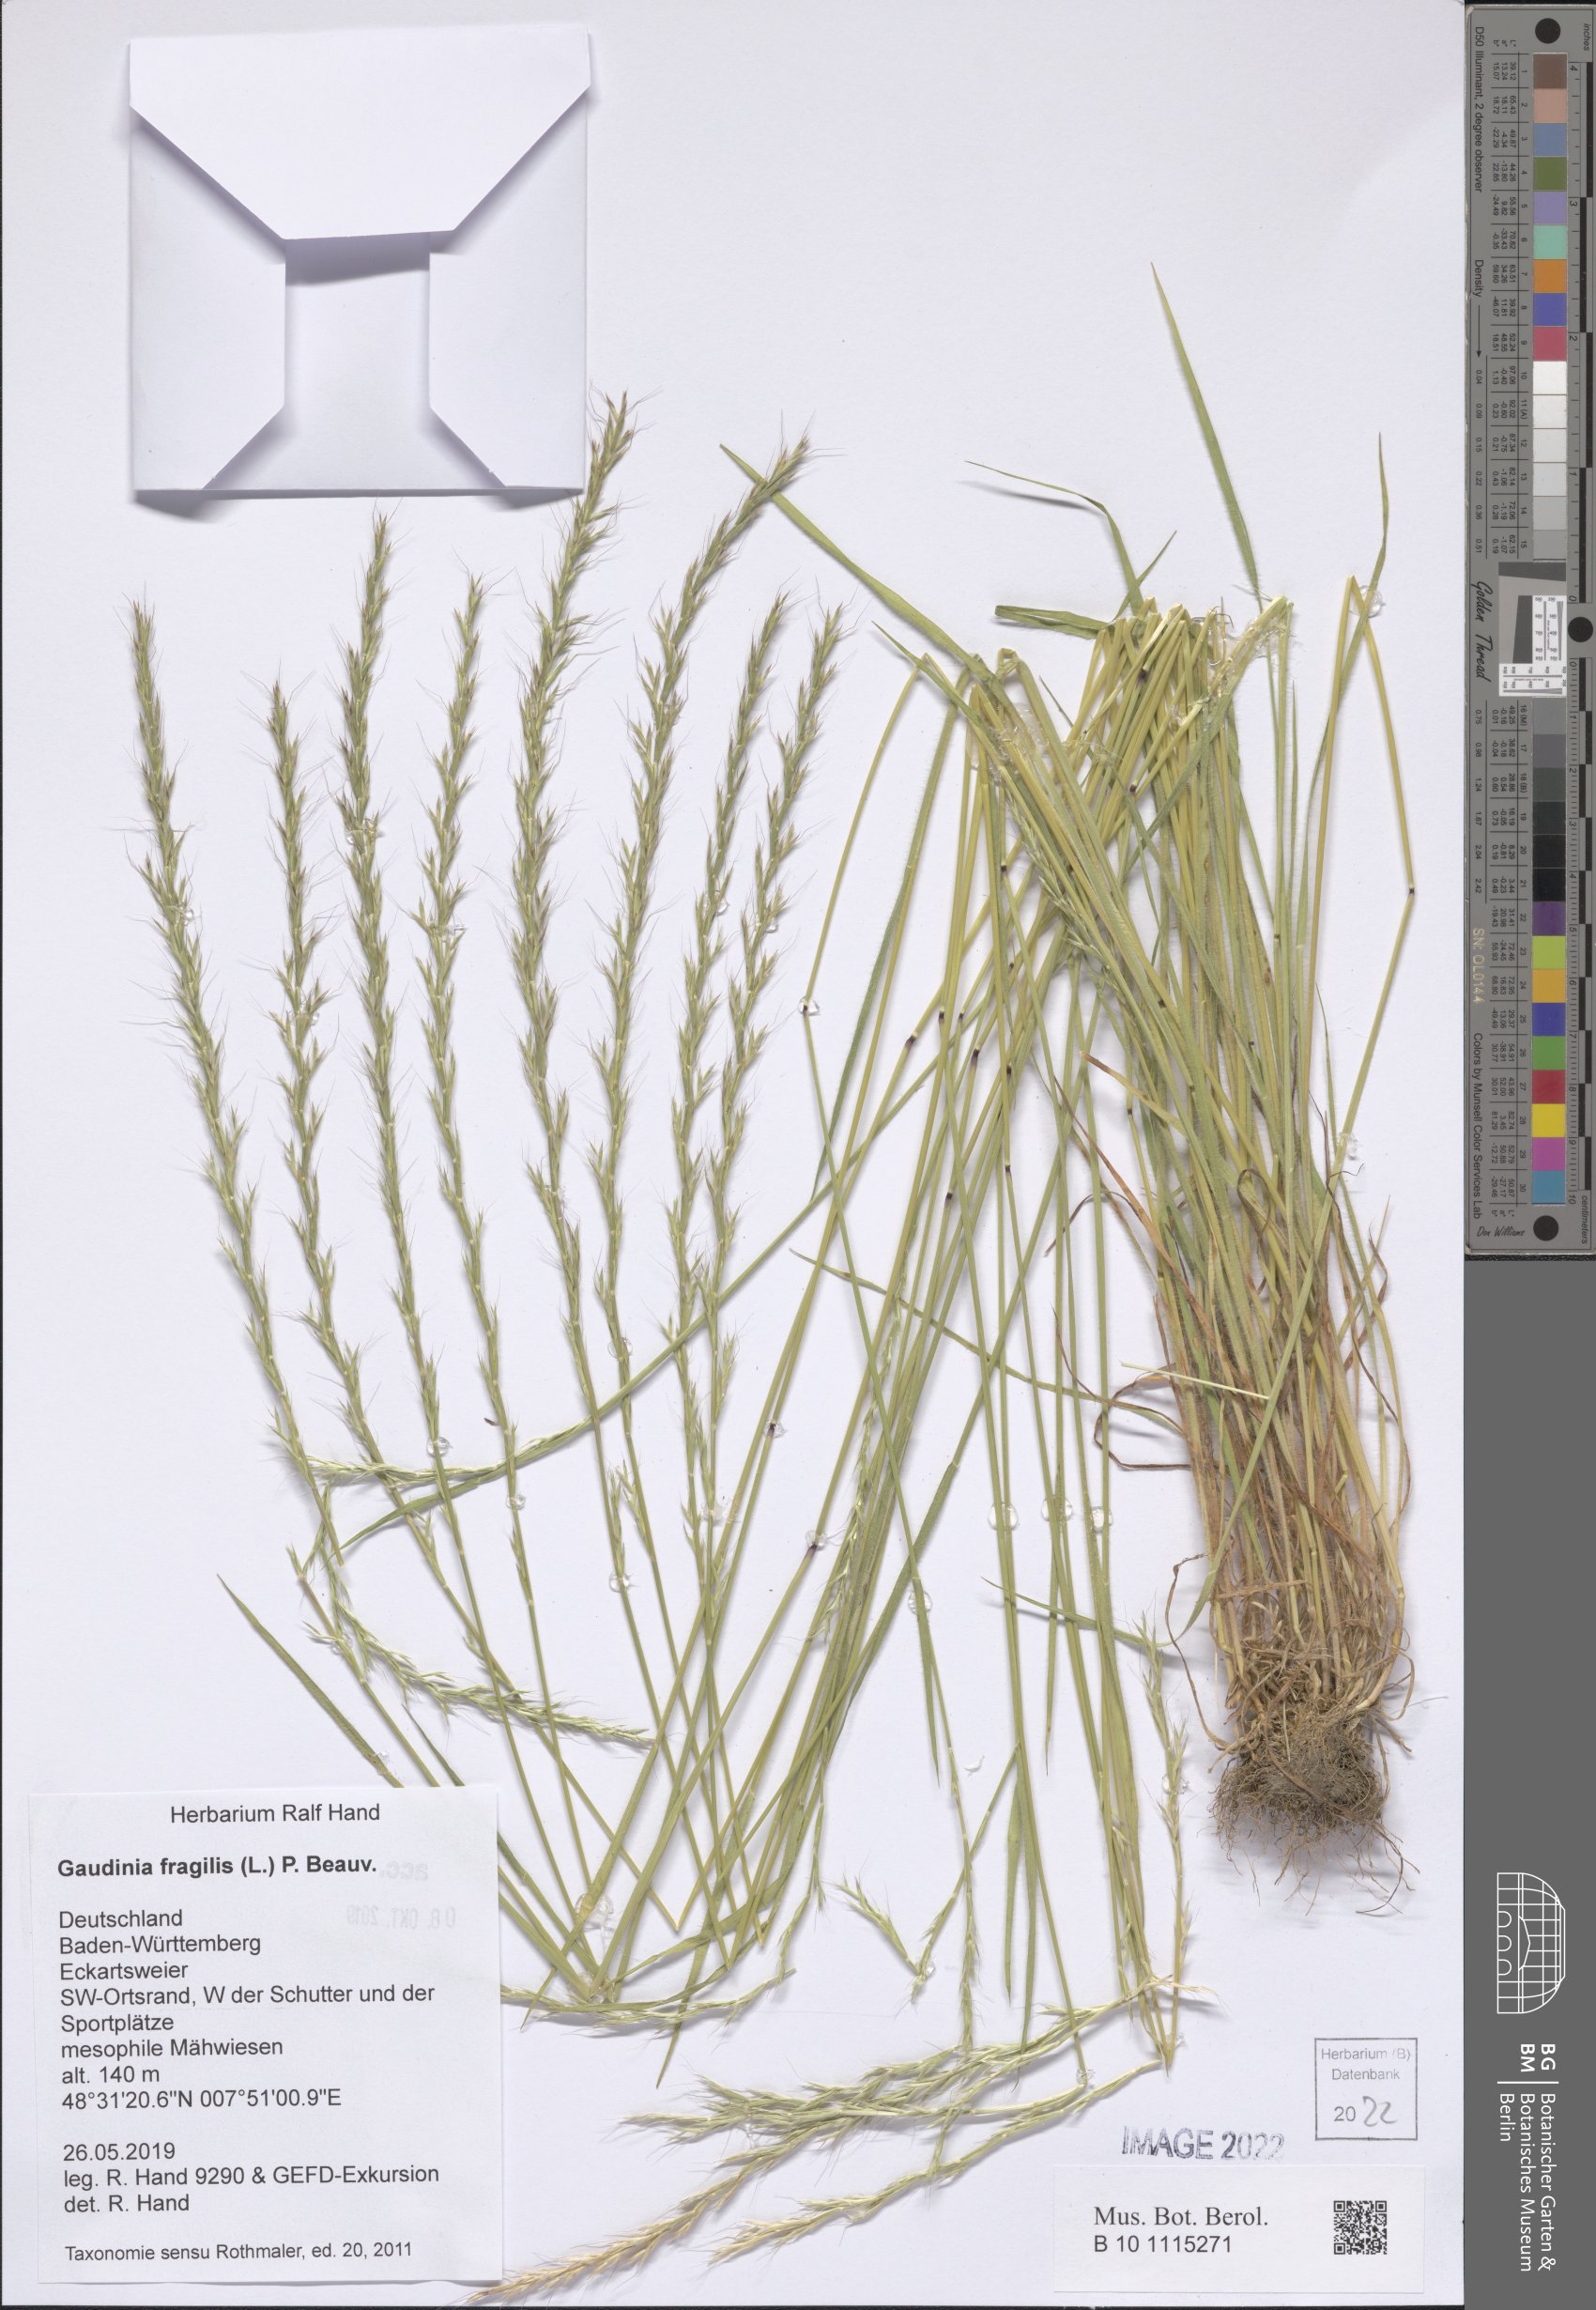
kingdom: Plantae
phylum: Tracheophyta
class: Liliopsida
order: Poales
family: Poaceae
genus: Gaudinia
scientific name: Gaudinia fragilis
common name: French oat-grass
